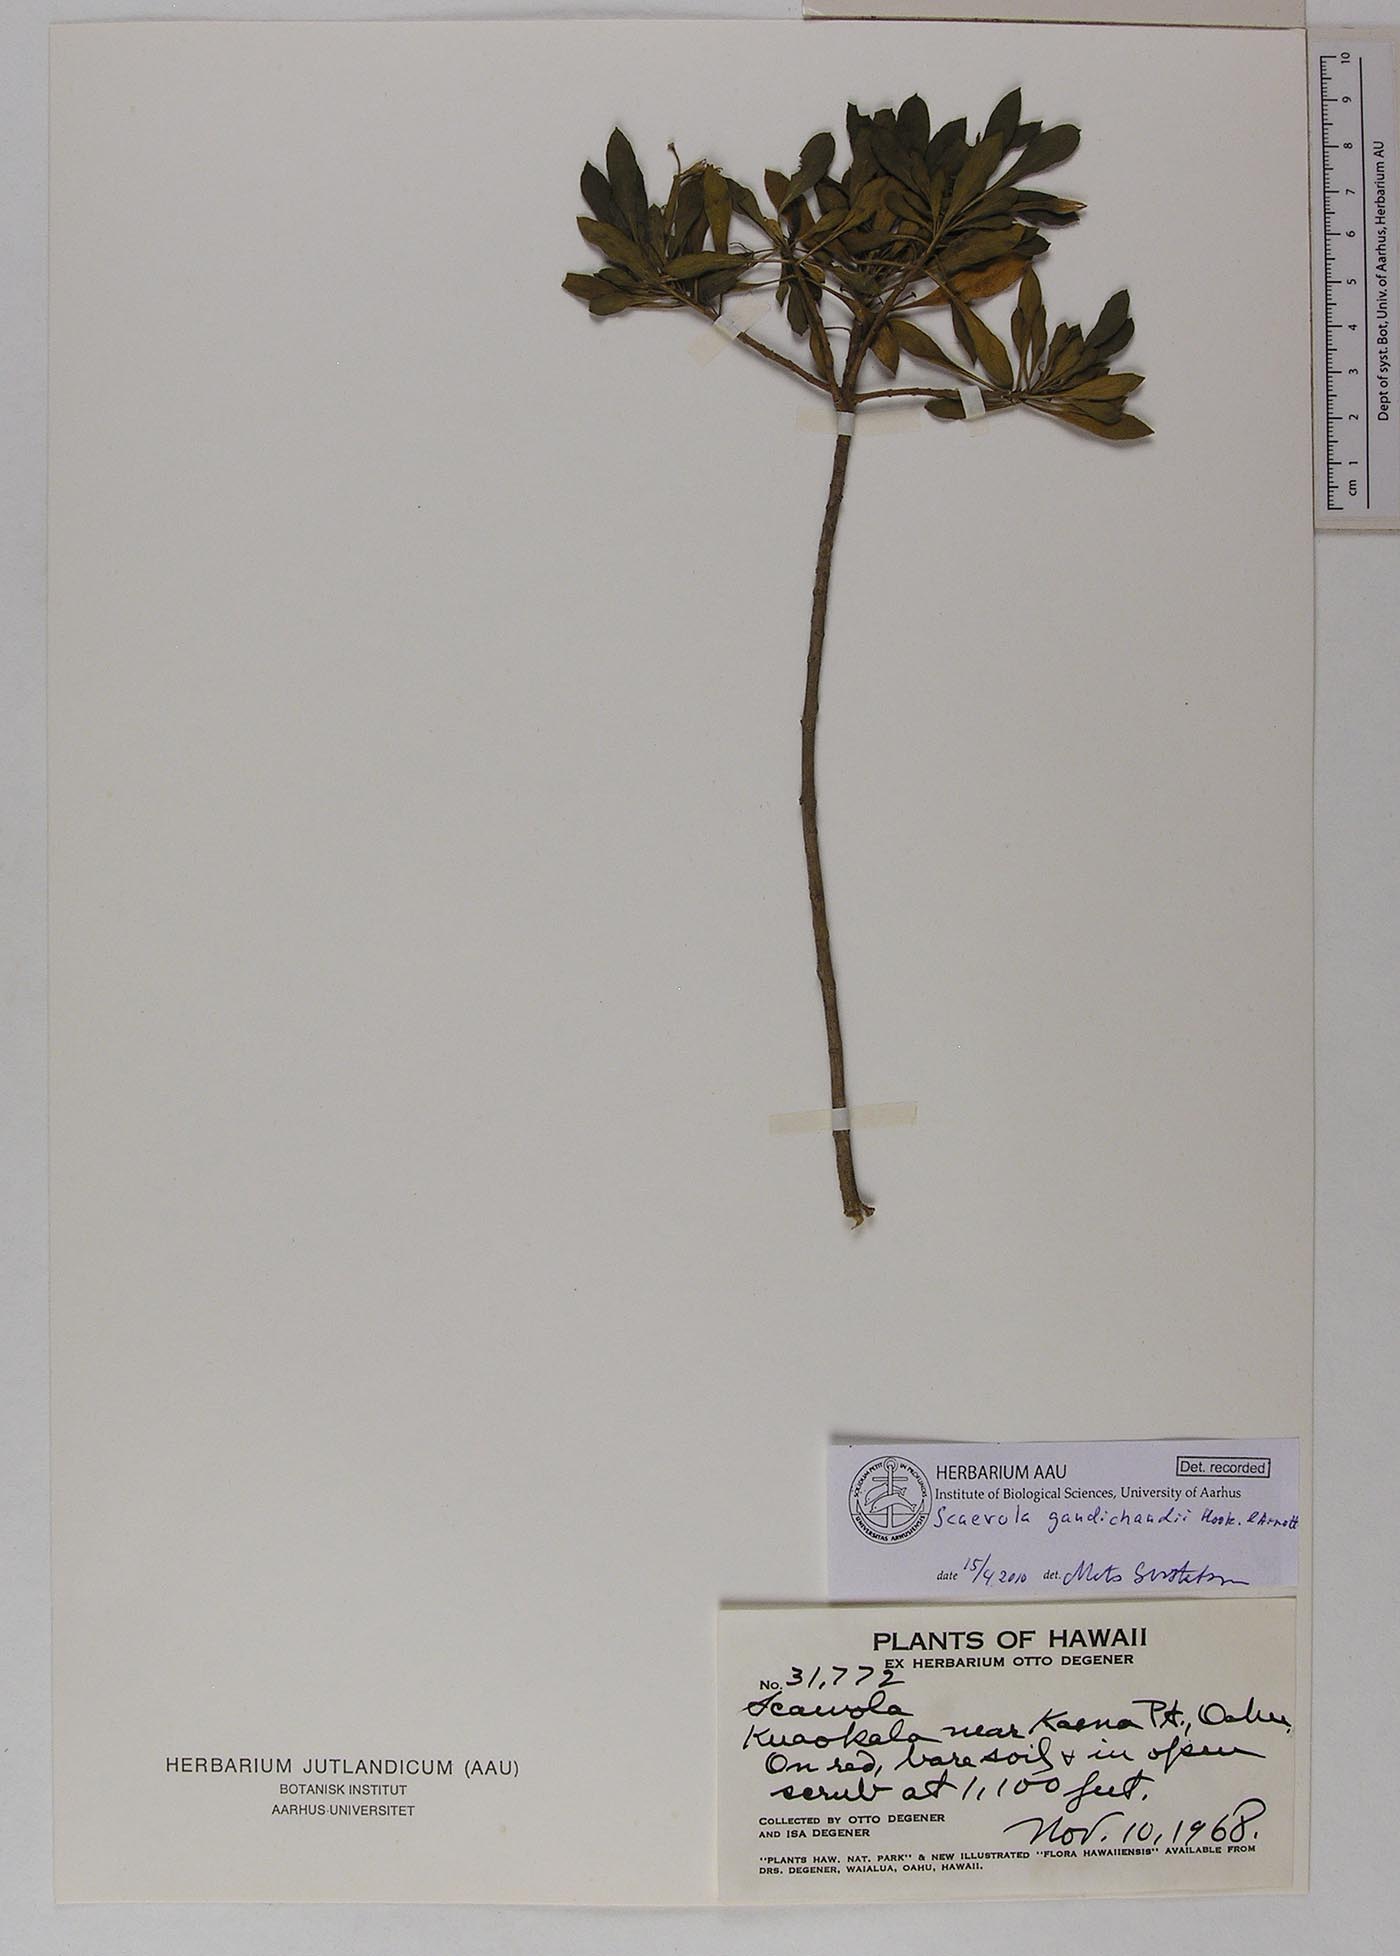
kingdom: Plantae
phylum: Tracheophyta
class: Magnoliopsida
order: Asterales
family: Goodeniaceae
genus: Scaevola
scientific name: Scaevola gaudichaudii
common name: Mountain naupaka
